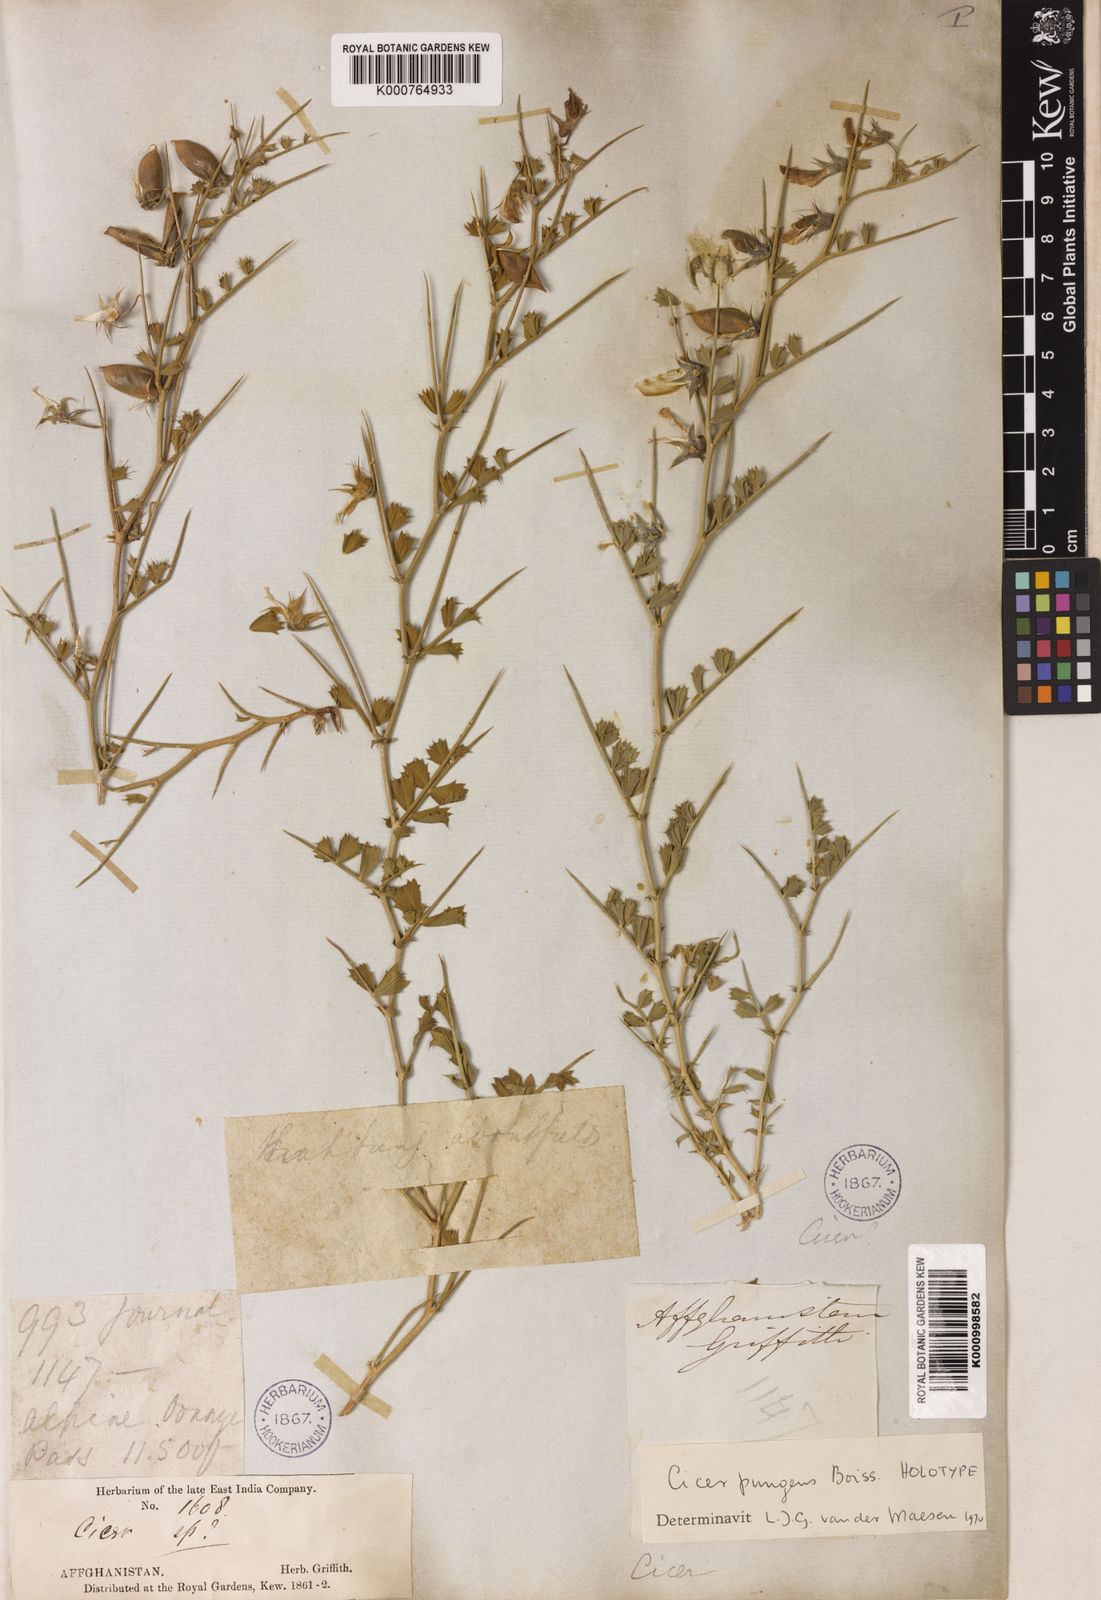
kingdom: Plantae
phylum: Tracheophyta
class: Magnoliopsida
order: Fabales
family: Fabaceae
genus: Cicer
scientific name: Cicer pungens
